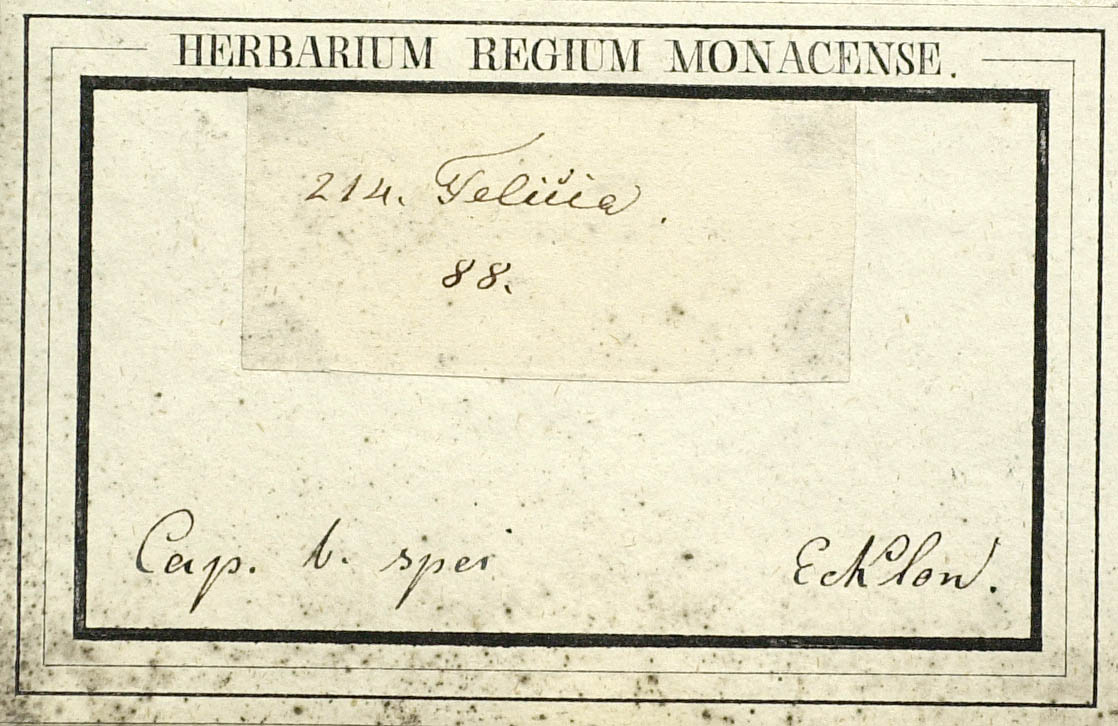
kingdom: Plantae
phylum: Tracheophyta
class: Magnoliopsida
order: Asterales
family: Asteraceae
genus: Felicia
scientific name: Felicia hirsuta
